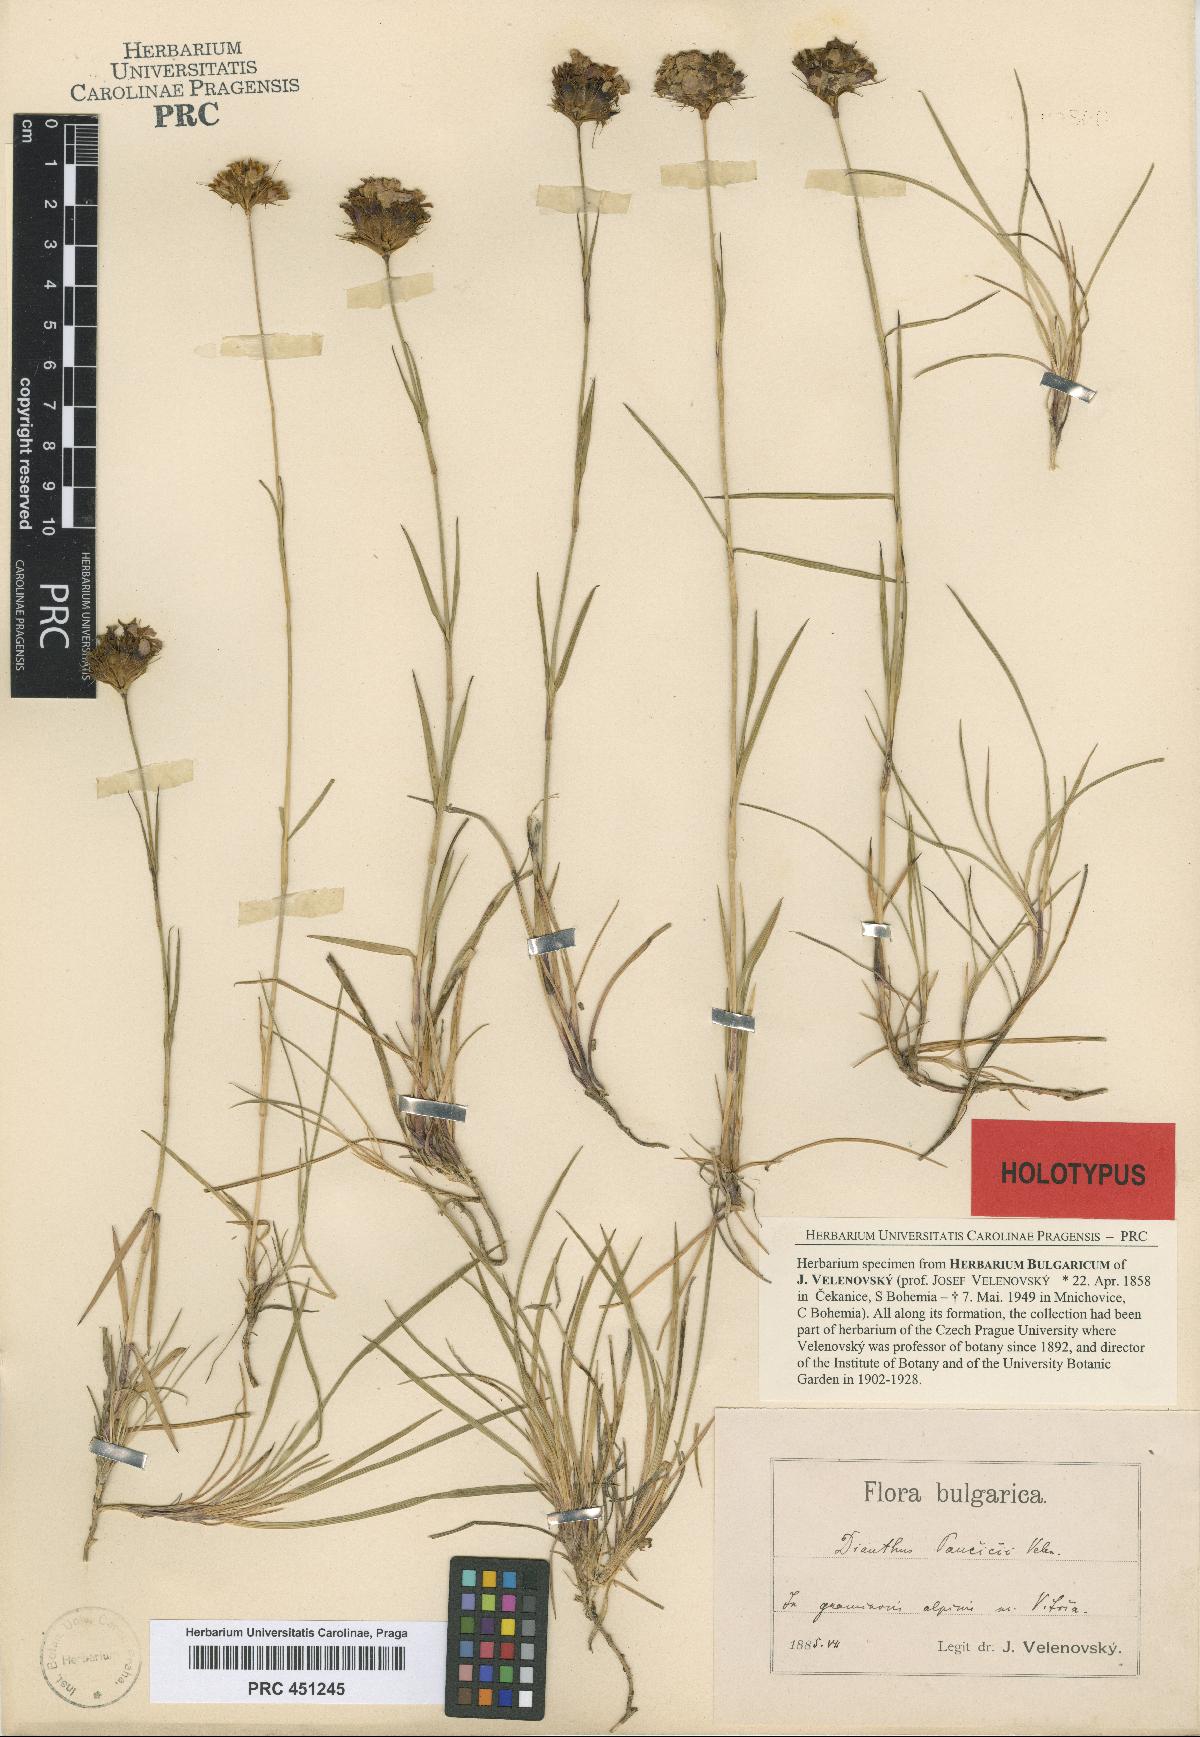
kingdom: Plantae
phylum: Tracheophyta
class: Magnoliopsida
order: Caryophyllales
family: Caryophyllaceae
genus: Dianthus
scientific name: Dianthus pancicii
